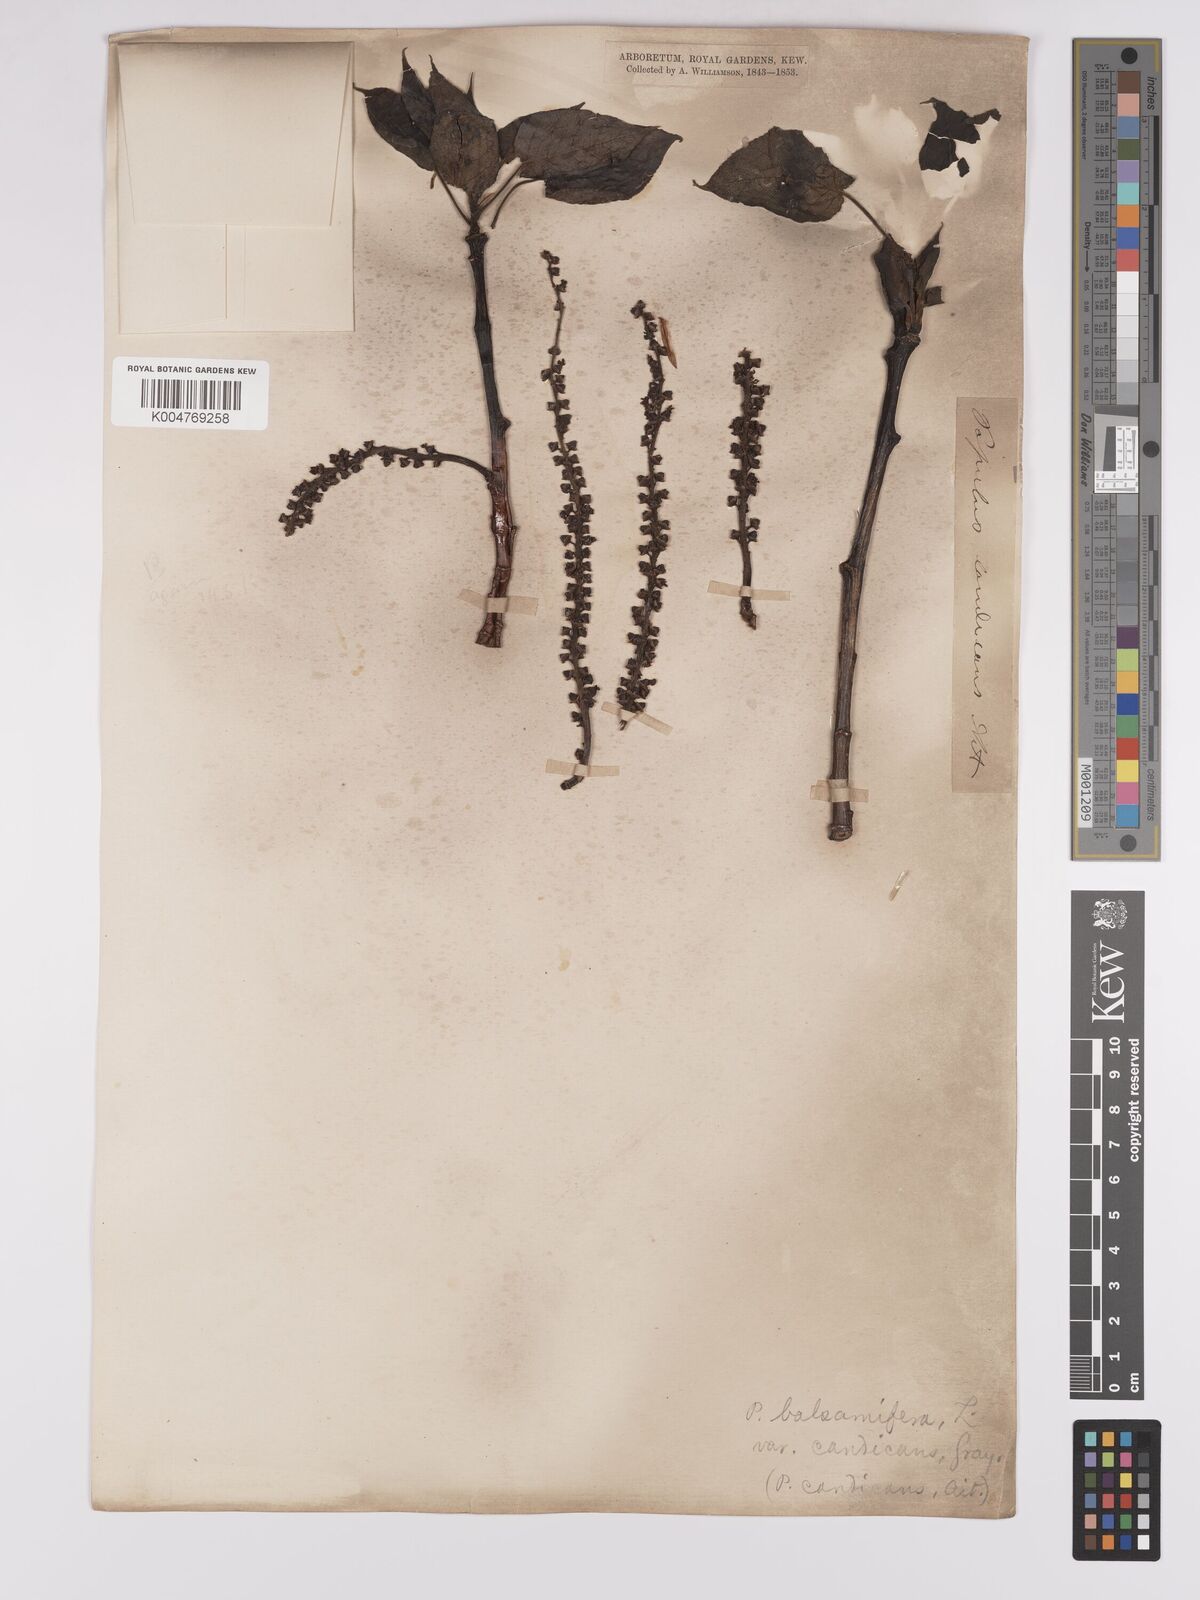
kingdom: Plantae
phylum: Tracheophyta
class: Magnoliopsida
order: Malpighiales
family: Salicaceae
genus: Populus
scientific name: Populus jackii
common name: Balm-of-gilead
